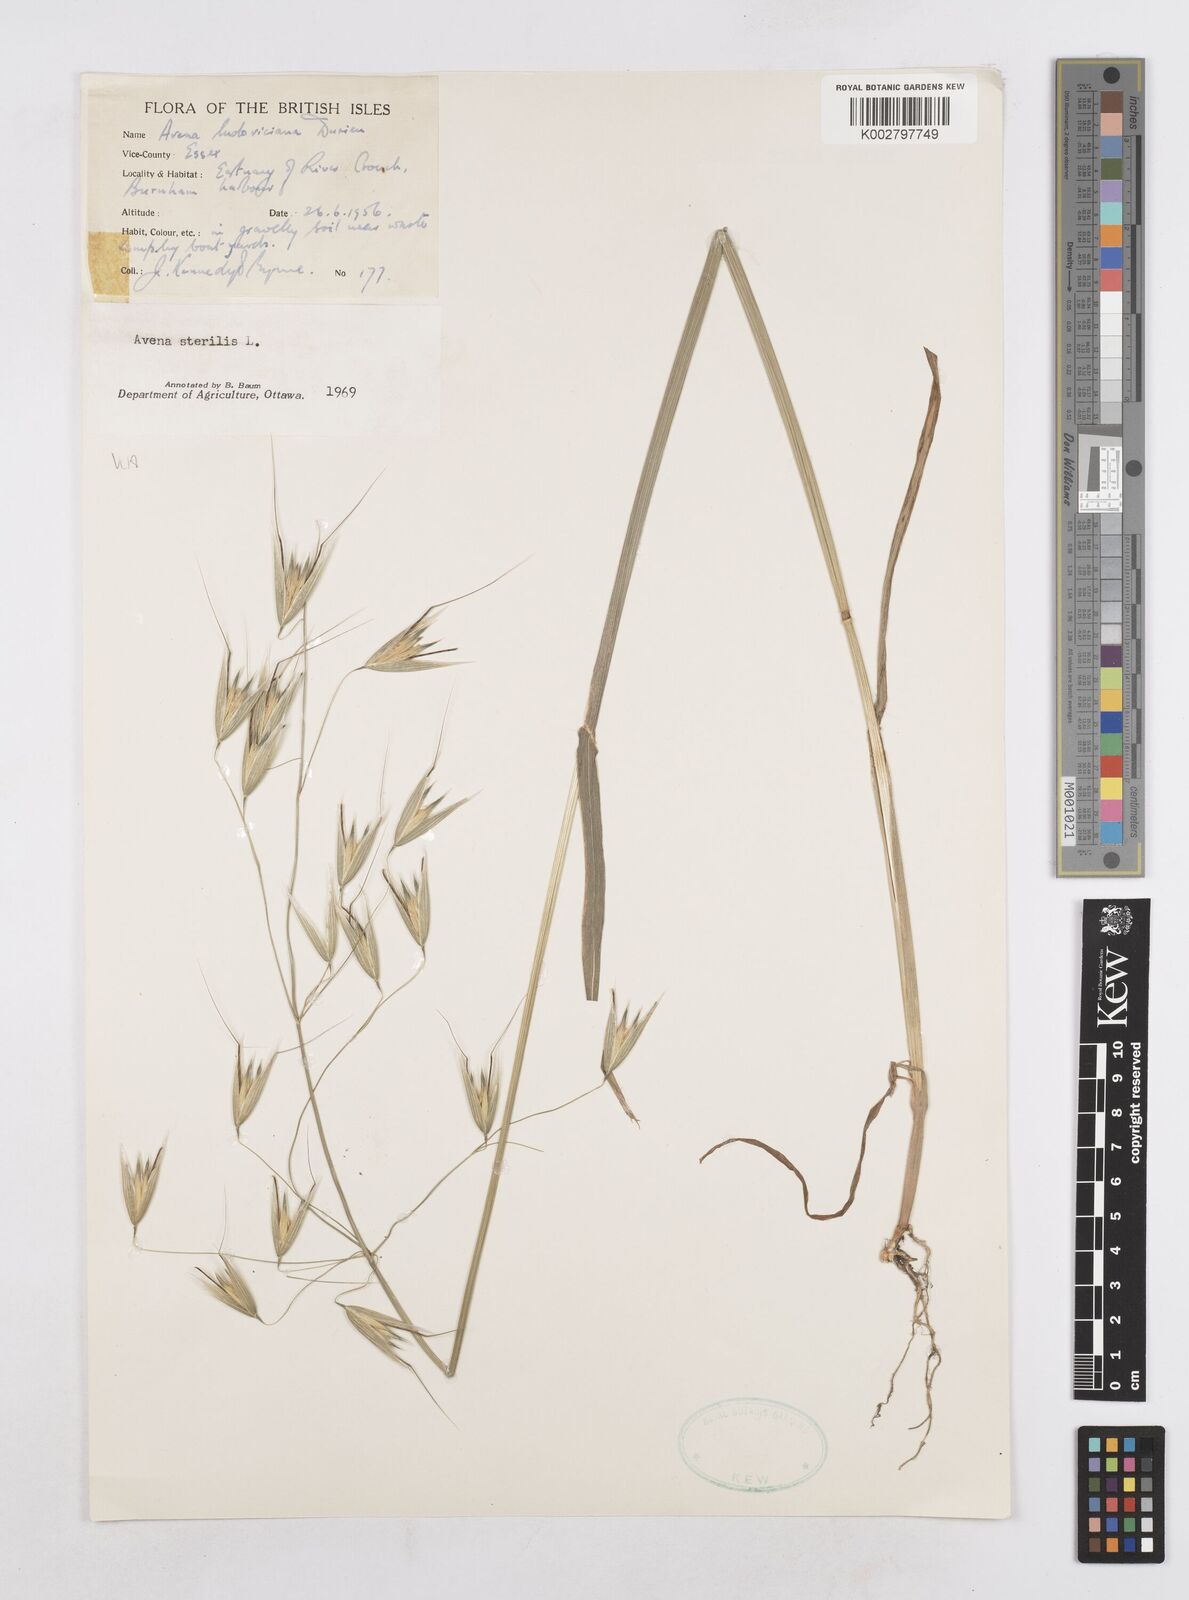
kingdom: Plantae
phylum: Tracheophyta
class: Liliopsida
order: Poales
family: Poaceae
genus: Avena
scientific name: Avena sterilis
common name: Animated oat
